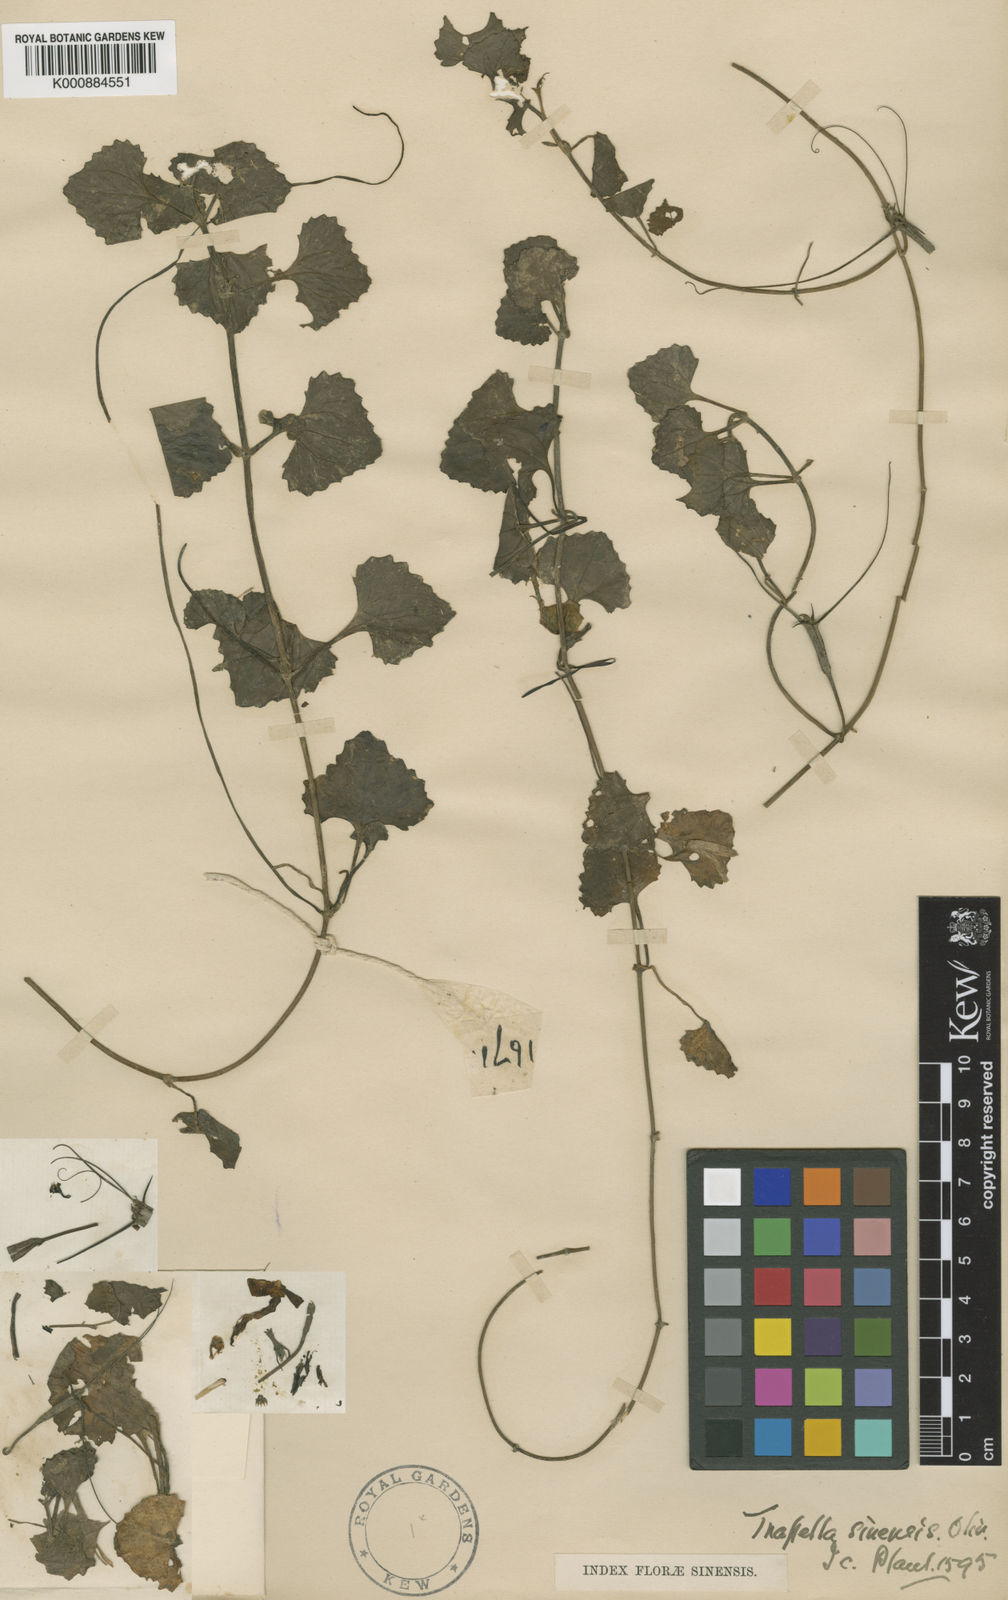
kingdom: Plantae
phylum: Tracheophyta
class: Magnoliopsida
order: Lamiales
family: Plantaginaceae
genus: Trapella
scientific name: Trapella sinensis
